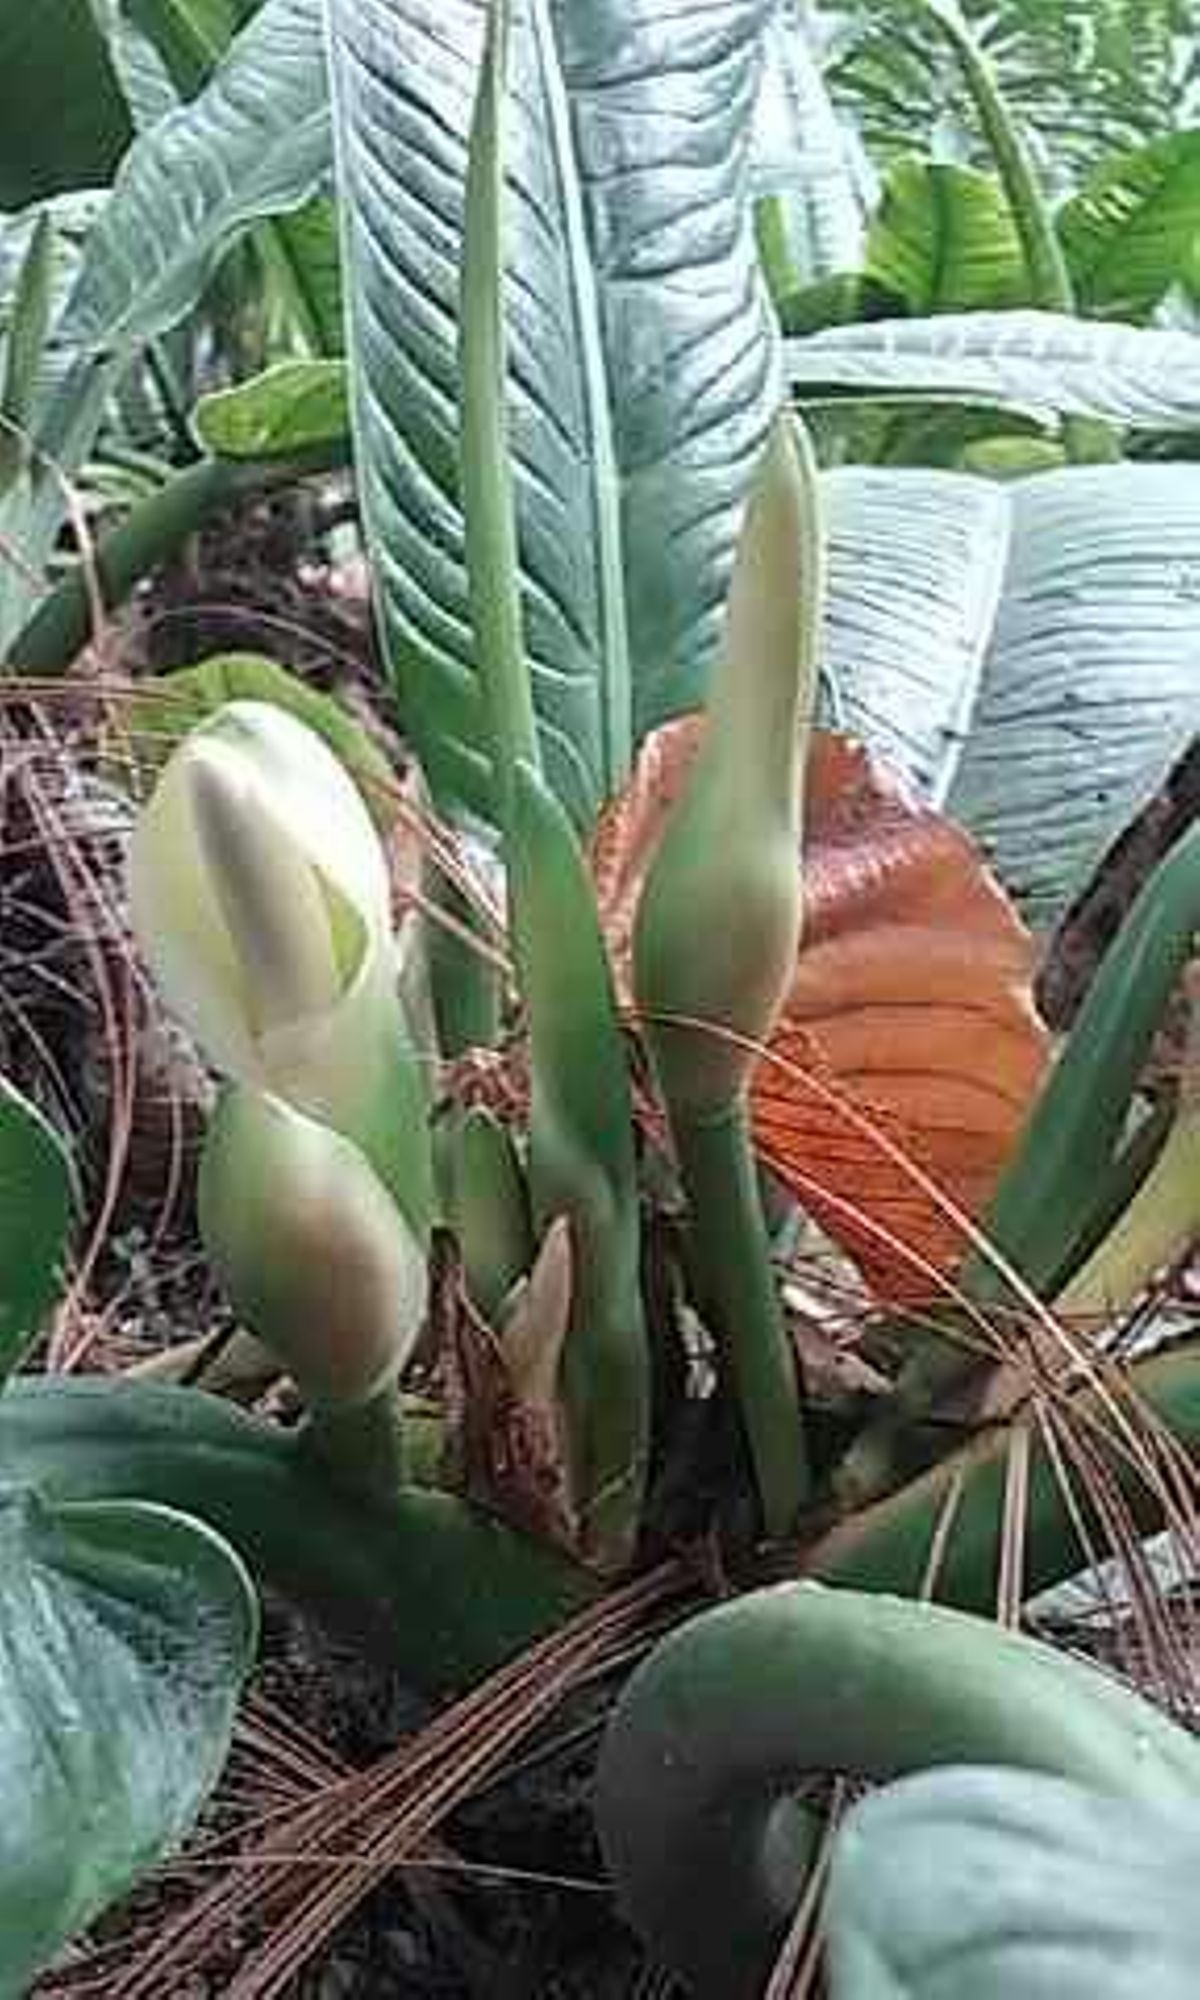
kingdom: Plantae
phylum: Tracheophyta
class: Liliopsida
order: Alismatales
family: Araceae
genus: Philodendron
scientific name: Philodendron campii
